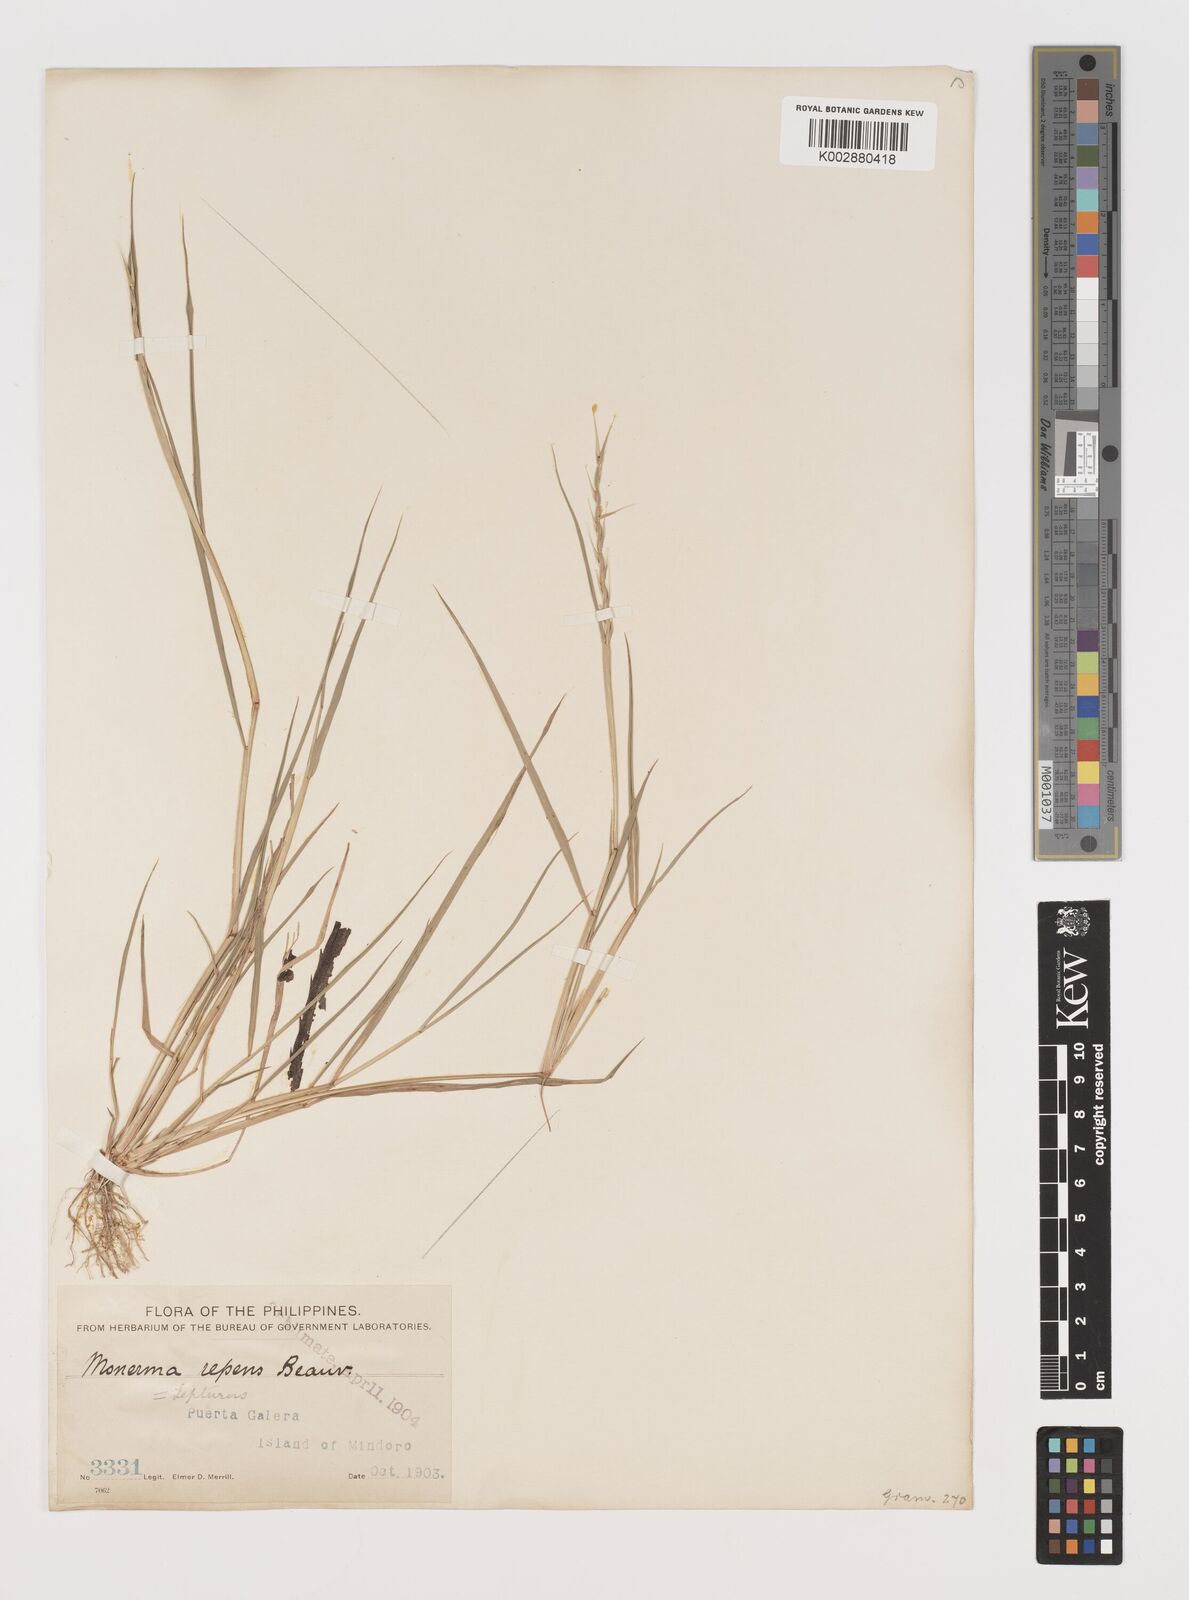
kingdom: Plantae
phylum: Tracheophyta
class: Liliopsida
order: Poales
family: Poaceae
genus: Lepturus
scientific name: Lepturus repens
